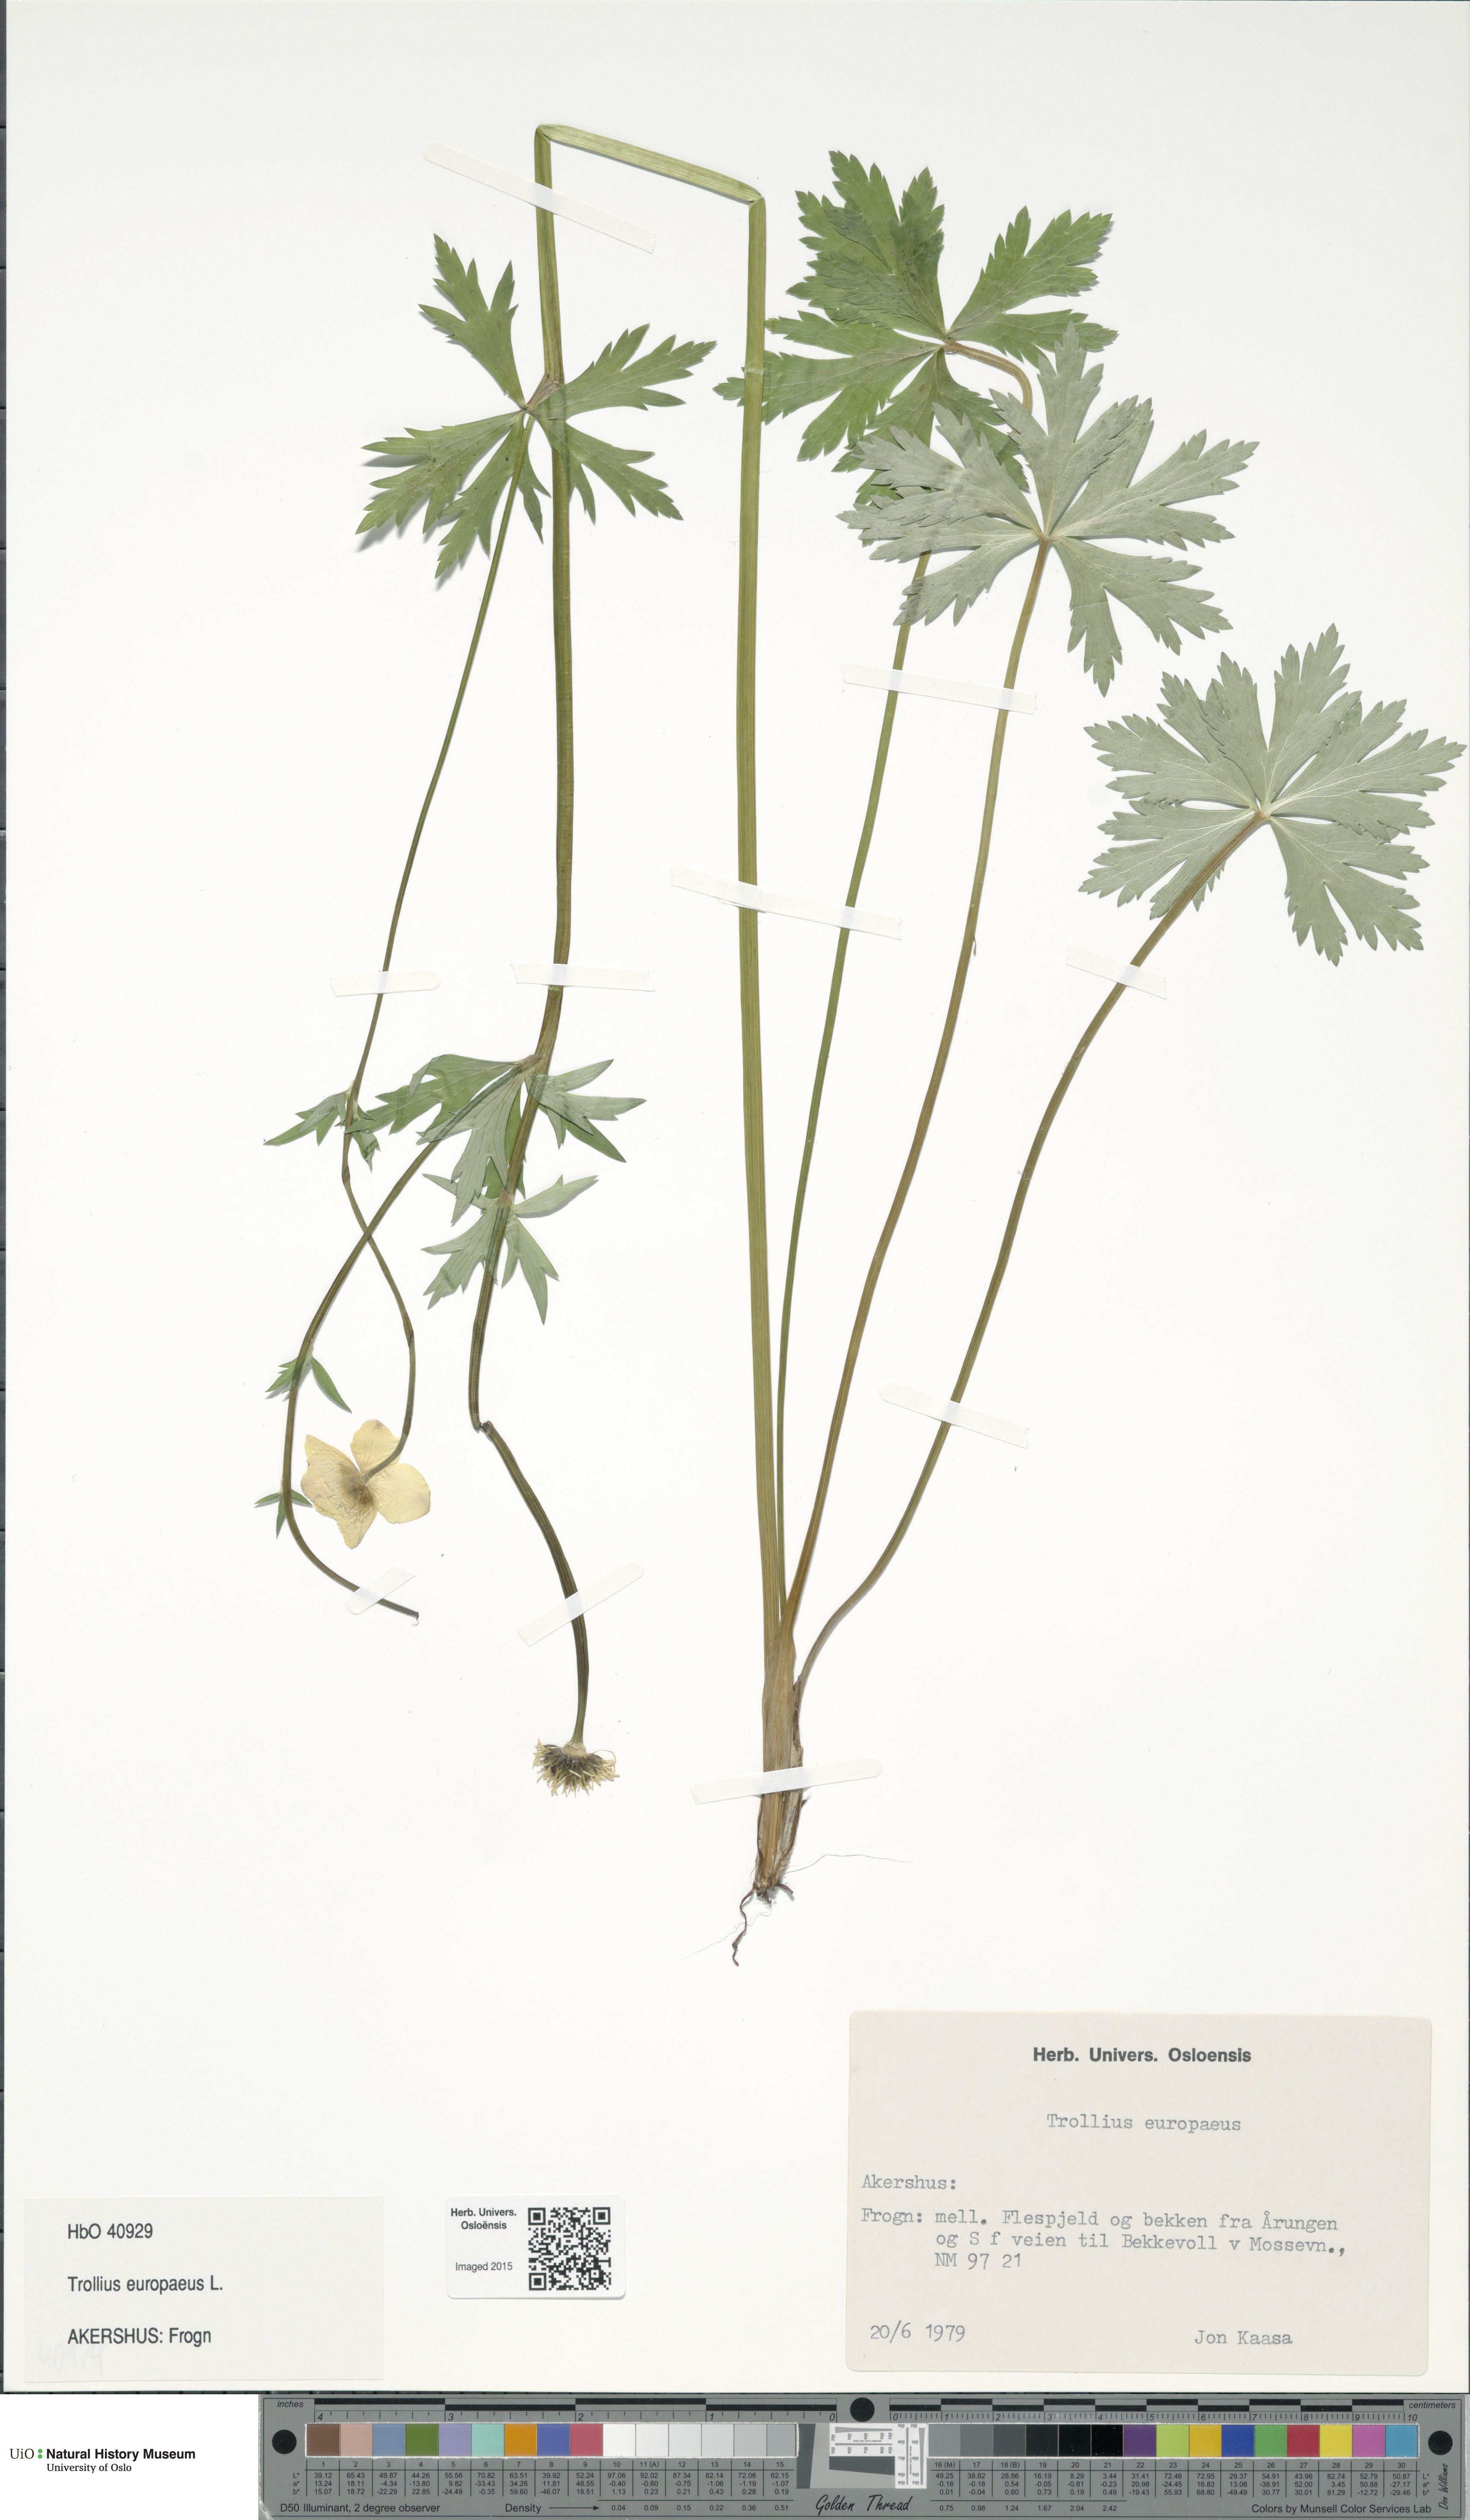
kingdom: Plantae
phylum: Tracheophyta
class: Magnoliopsida
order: Ranunculales
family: Ranunculaceae
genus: Trollius
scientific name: Trollius europaeus
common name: European globeflower
